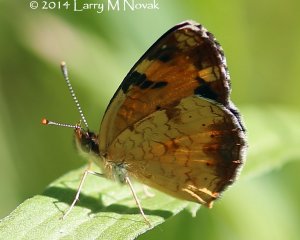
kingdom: Animalia
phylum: Arthropoda
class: Insecta
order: Lepidoptera
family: Nymphalidae
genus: Phyciodes
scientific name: Phyciodes tharos
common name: Northern Crescent
